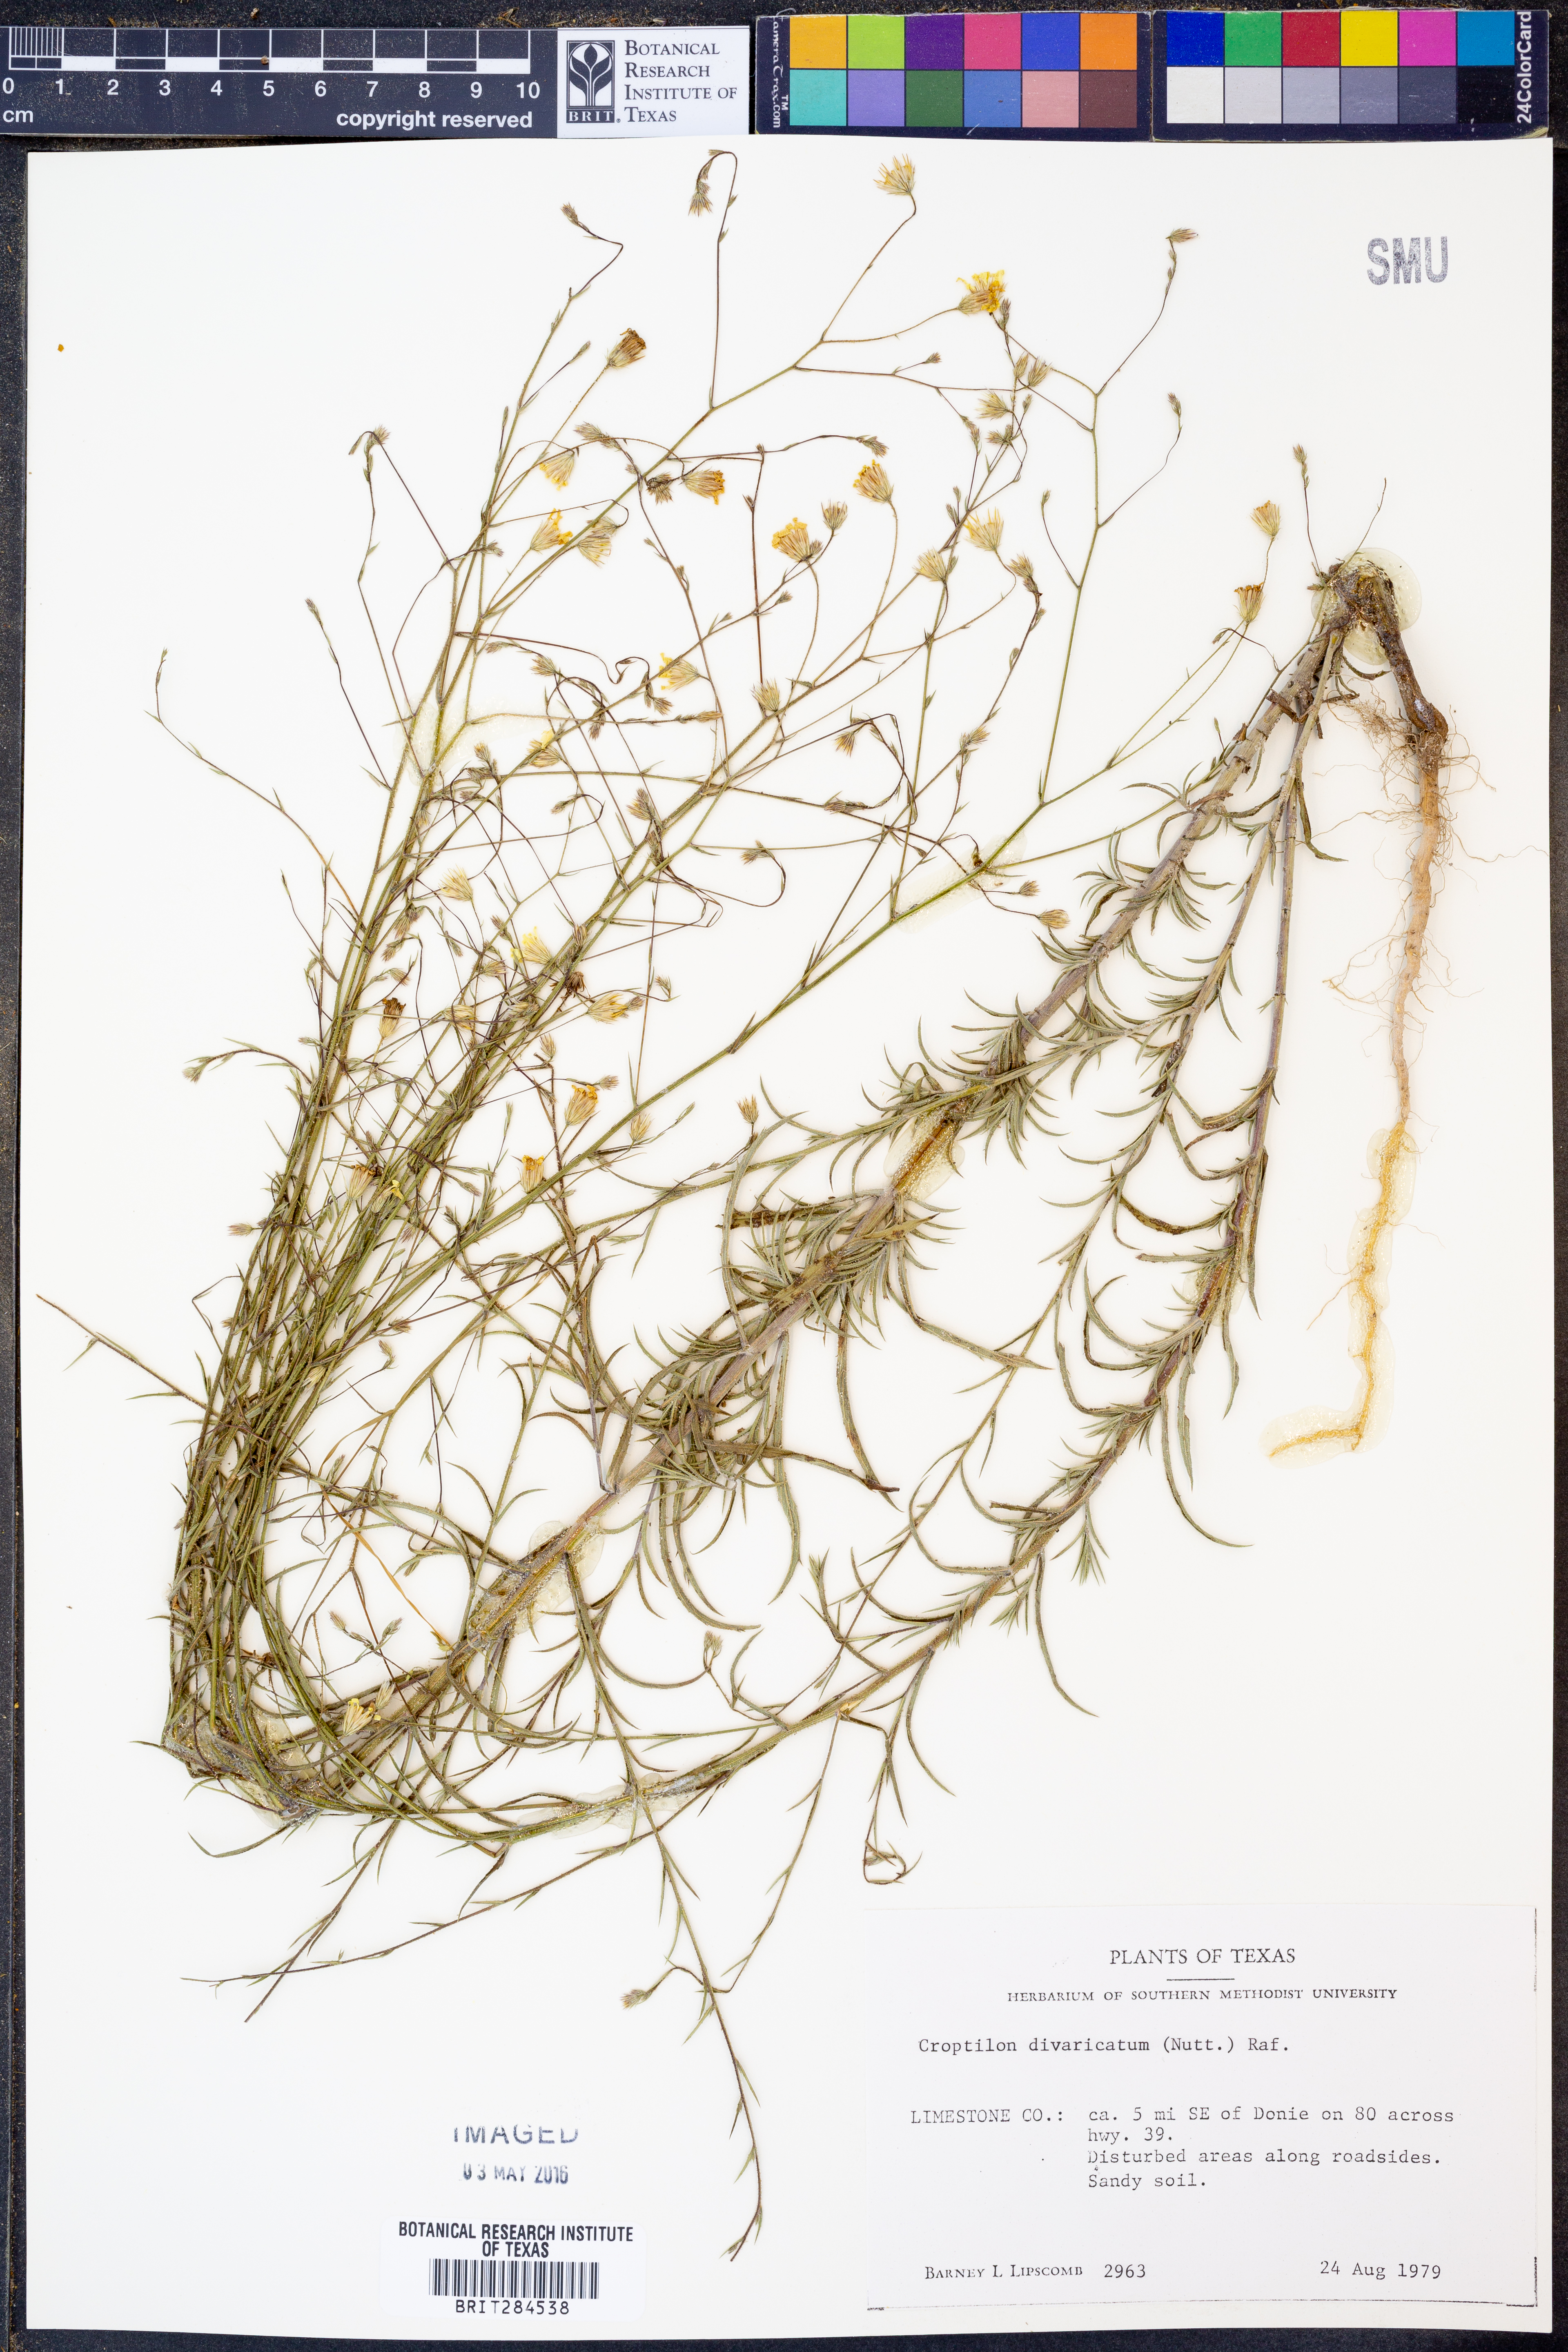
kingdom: Plantae
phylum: Tracheophyta
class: Magnoliopsida
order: Asterales
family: Asteraceae
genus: Croptilon
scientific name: Croptilon divaricatum
